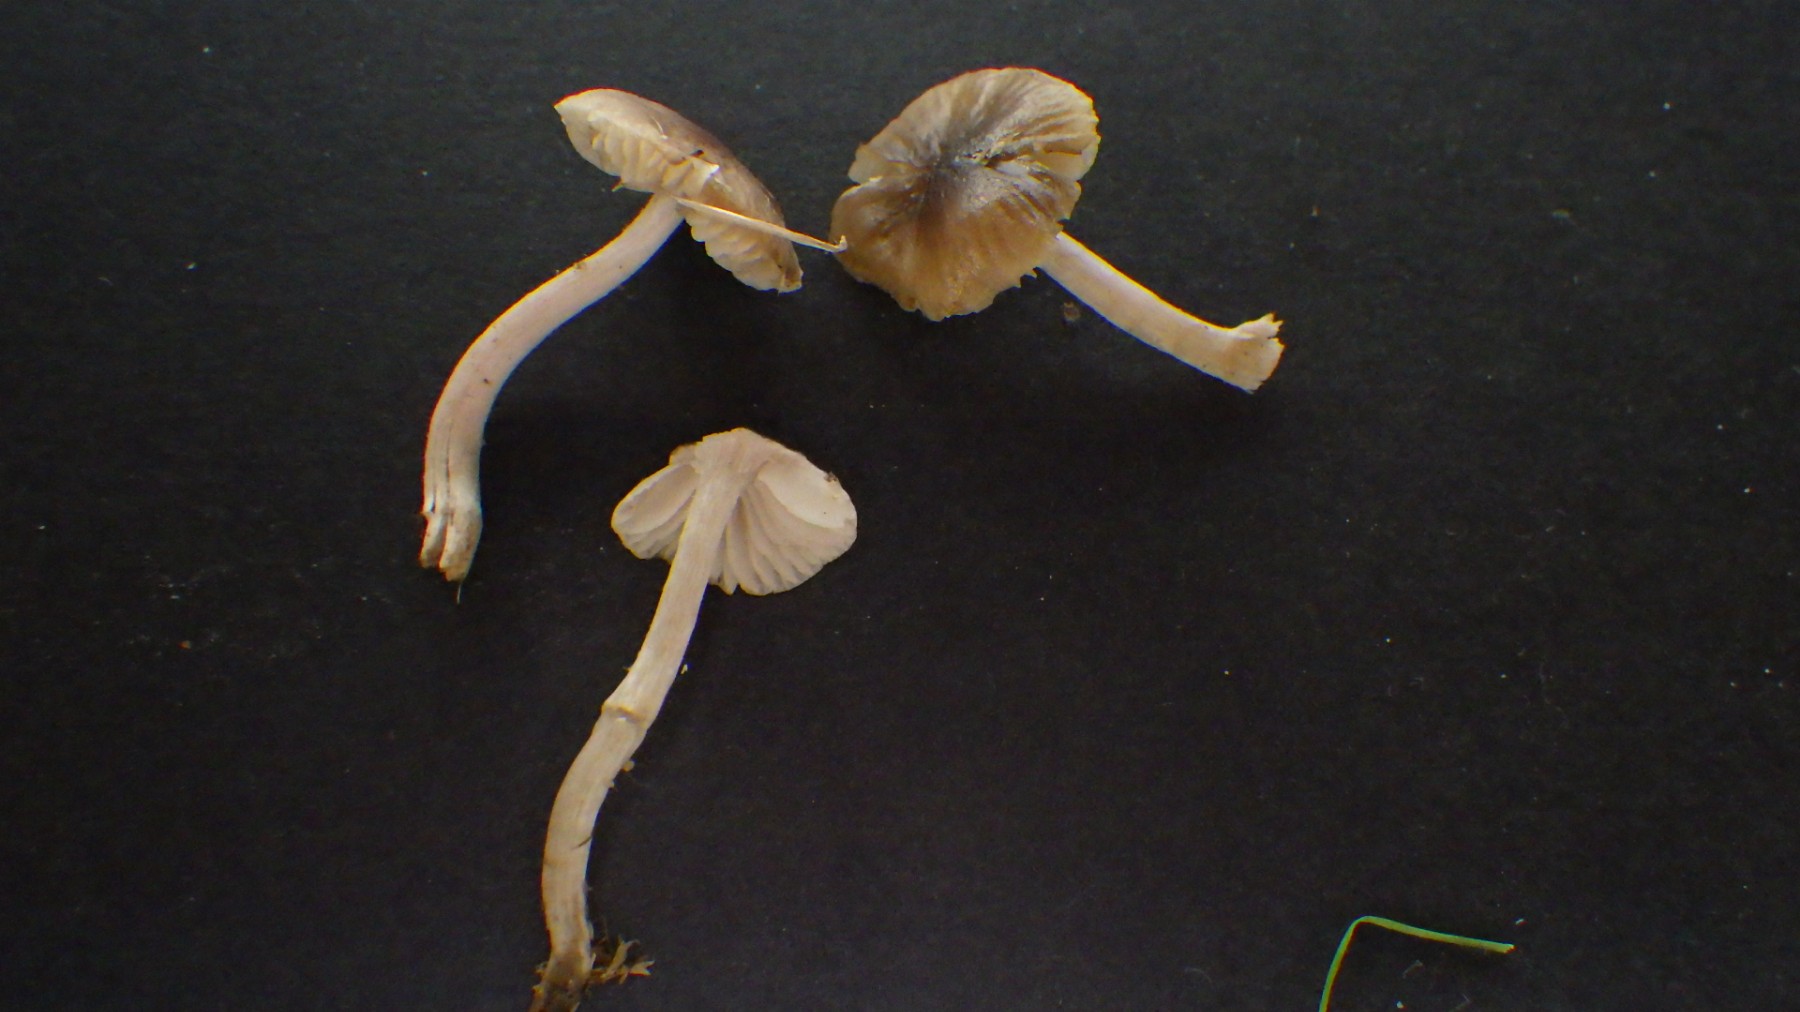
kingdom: Fungi
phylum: Basidiomycota
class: Agaricomycetes
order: Agaricales
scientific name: Agaricales
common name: champignonordenen
